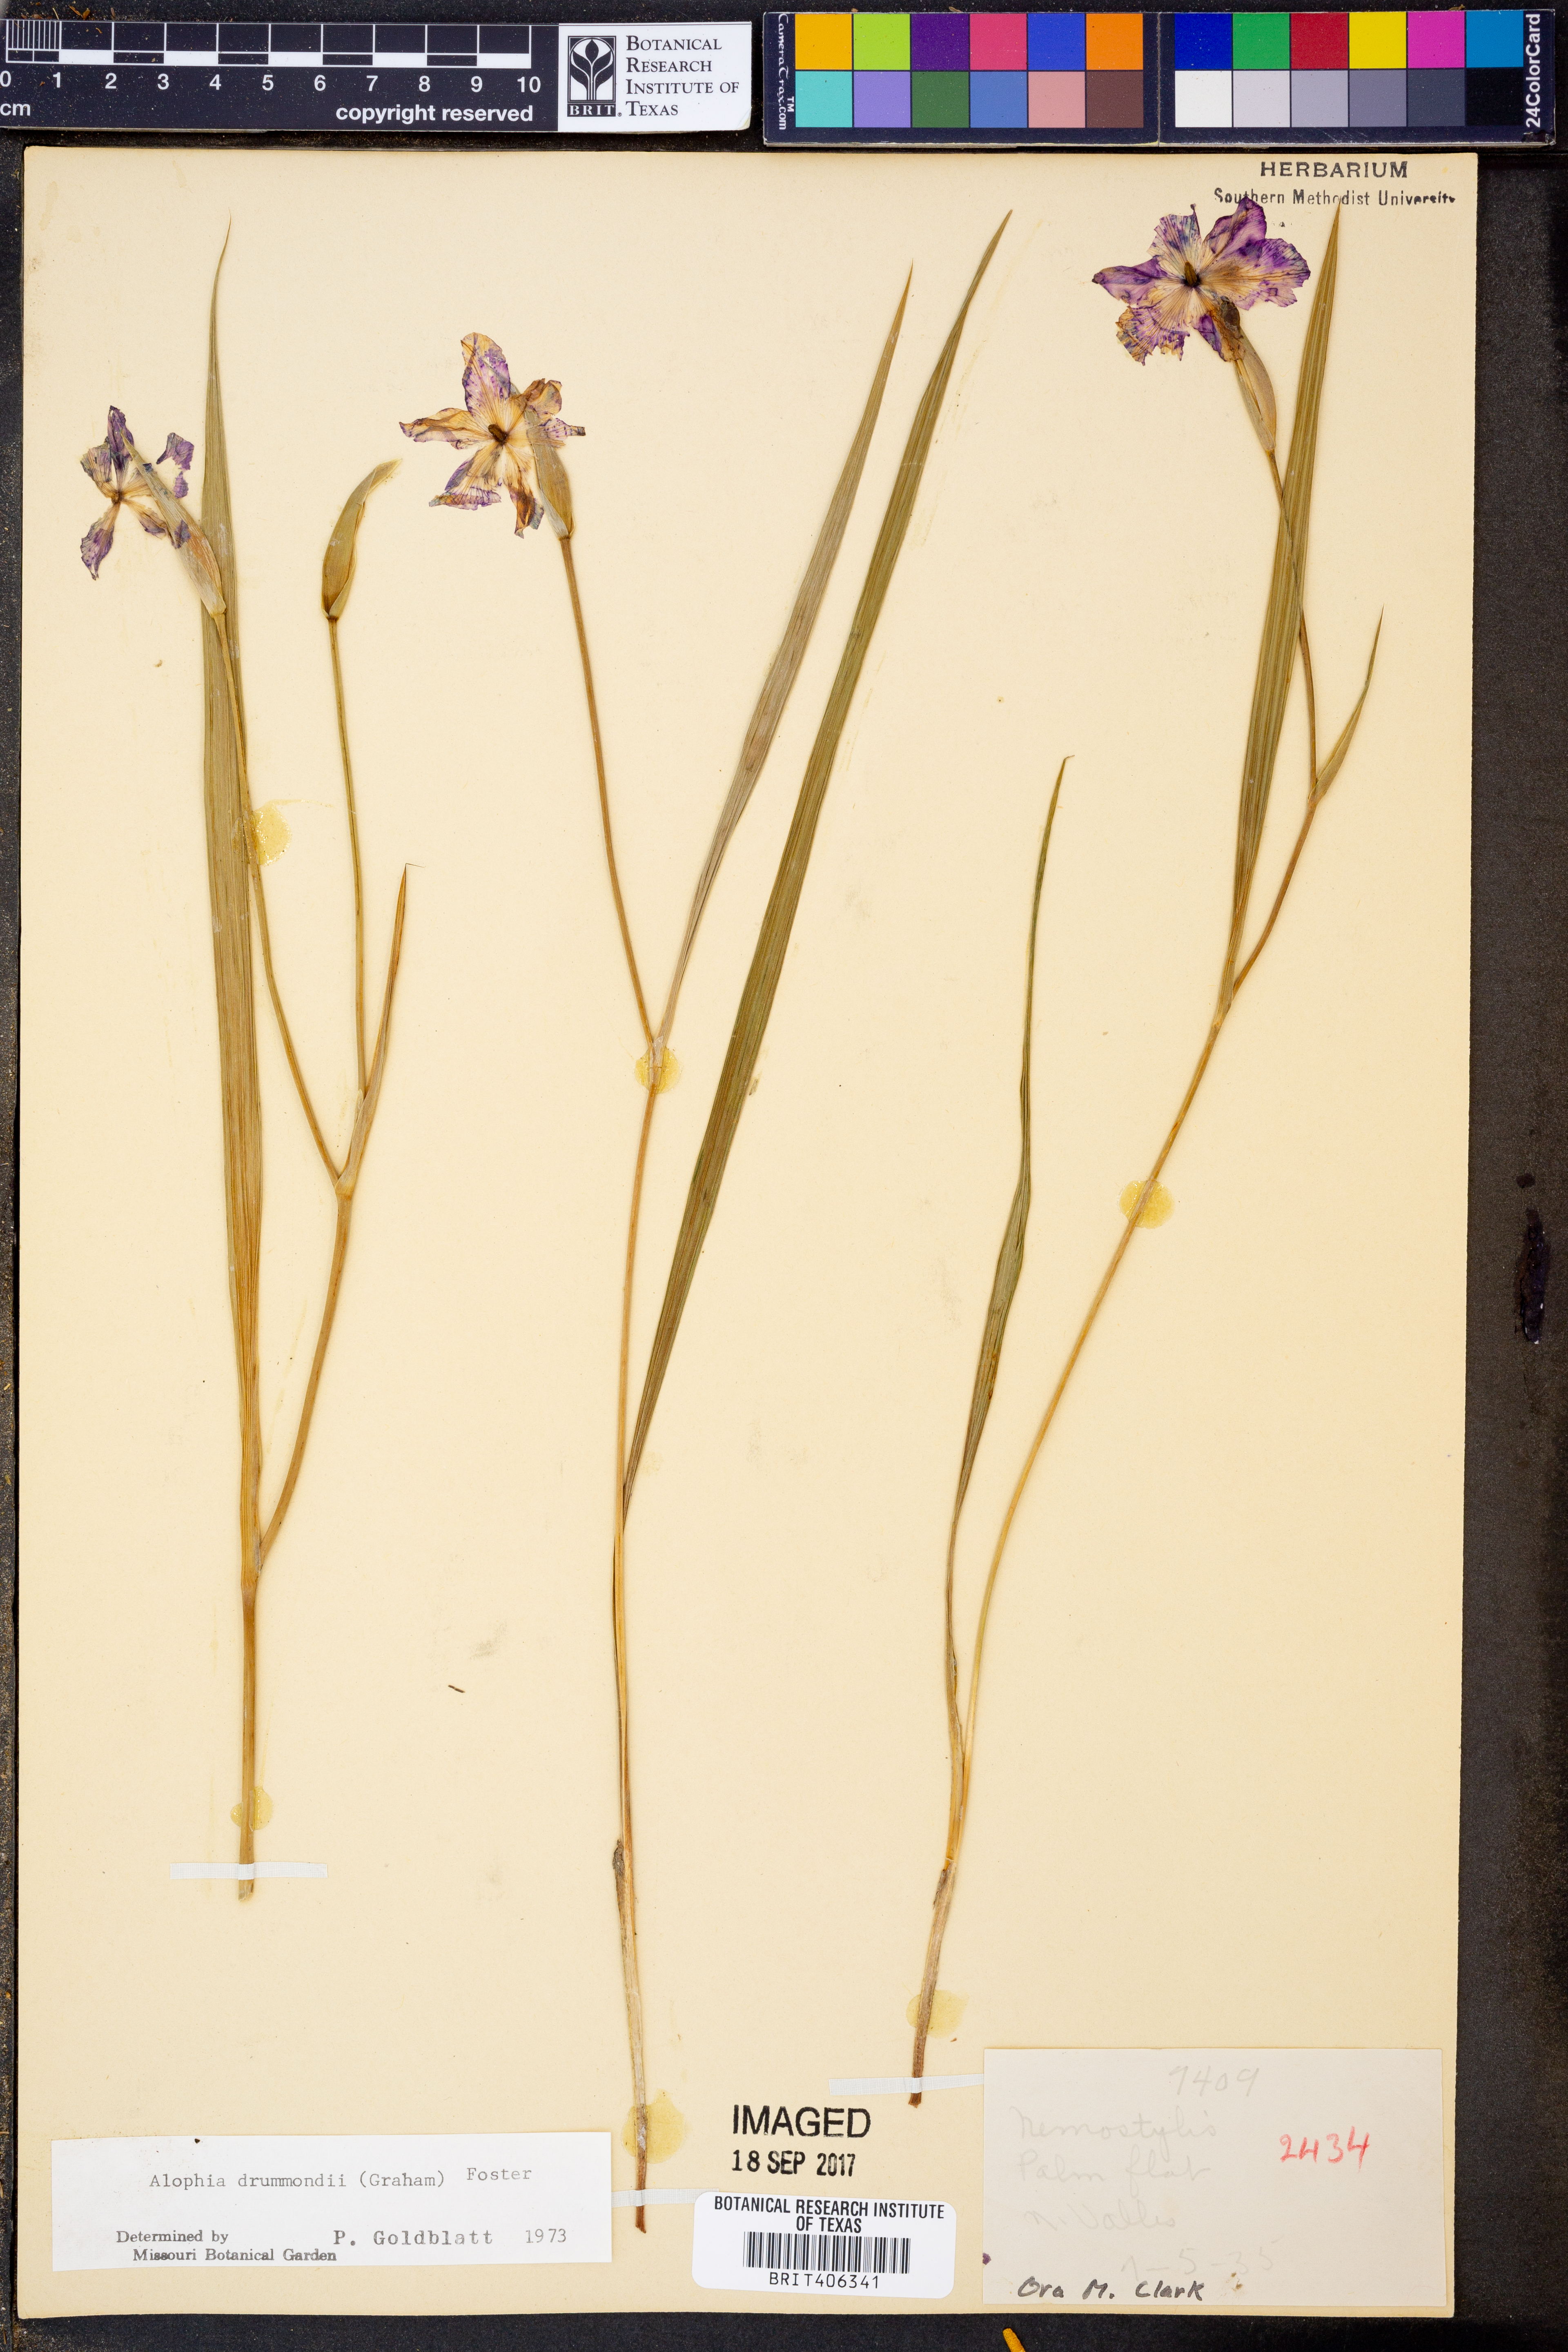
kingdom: Plantae
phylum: Tracheophyta
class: Liliopsida
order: Asparagales
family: Iridaceae
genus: Alophia
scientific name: Alophia drummondii
